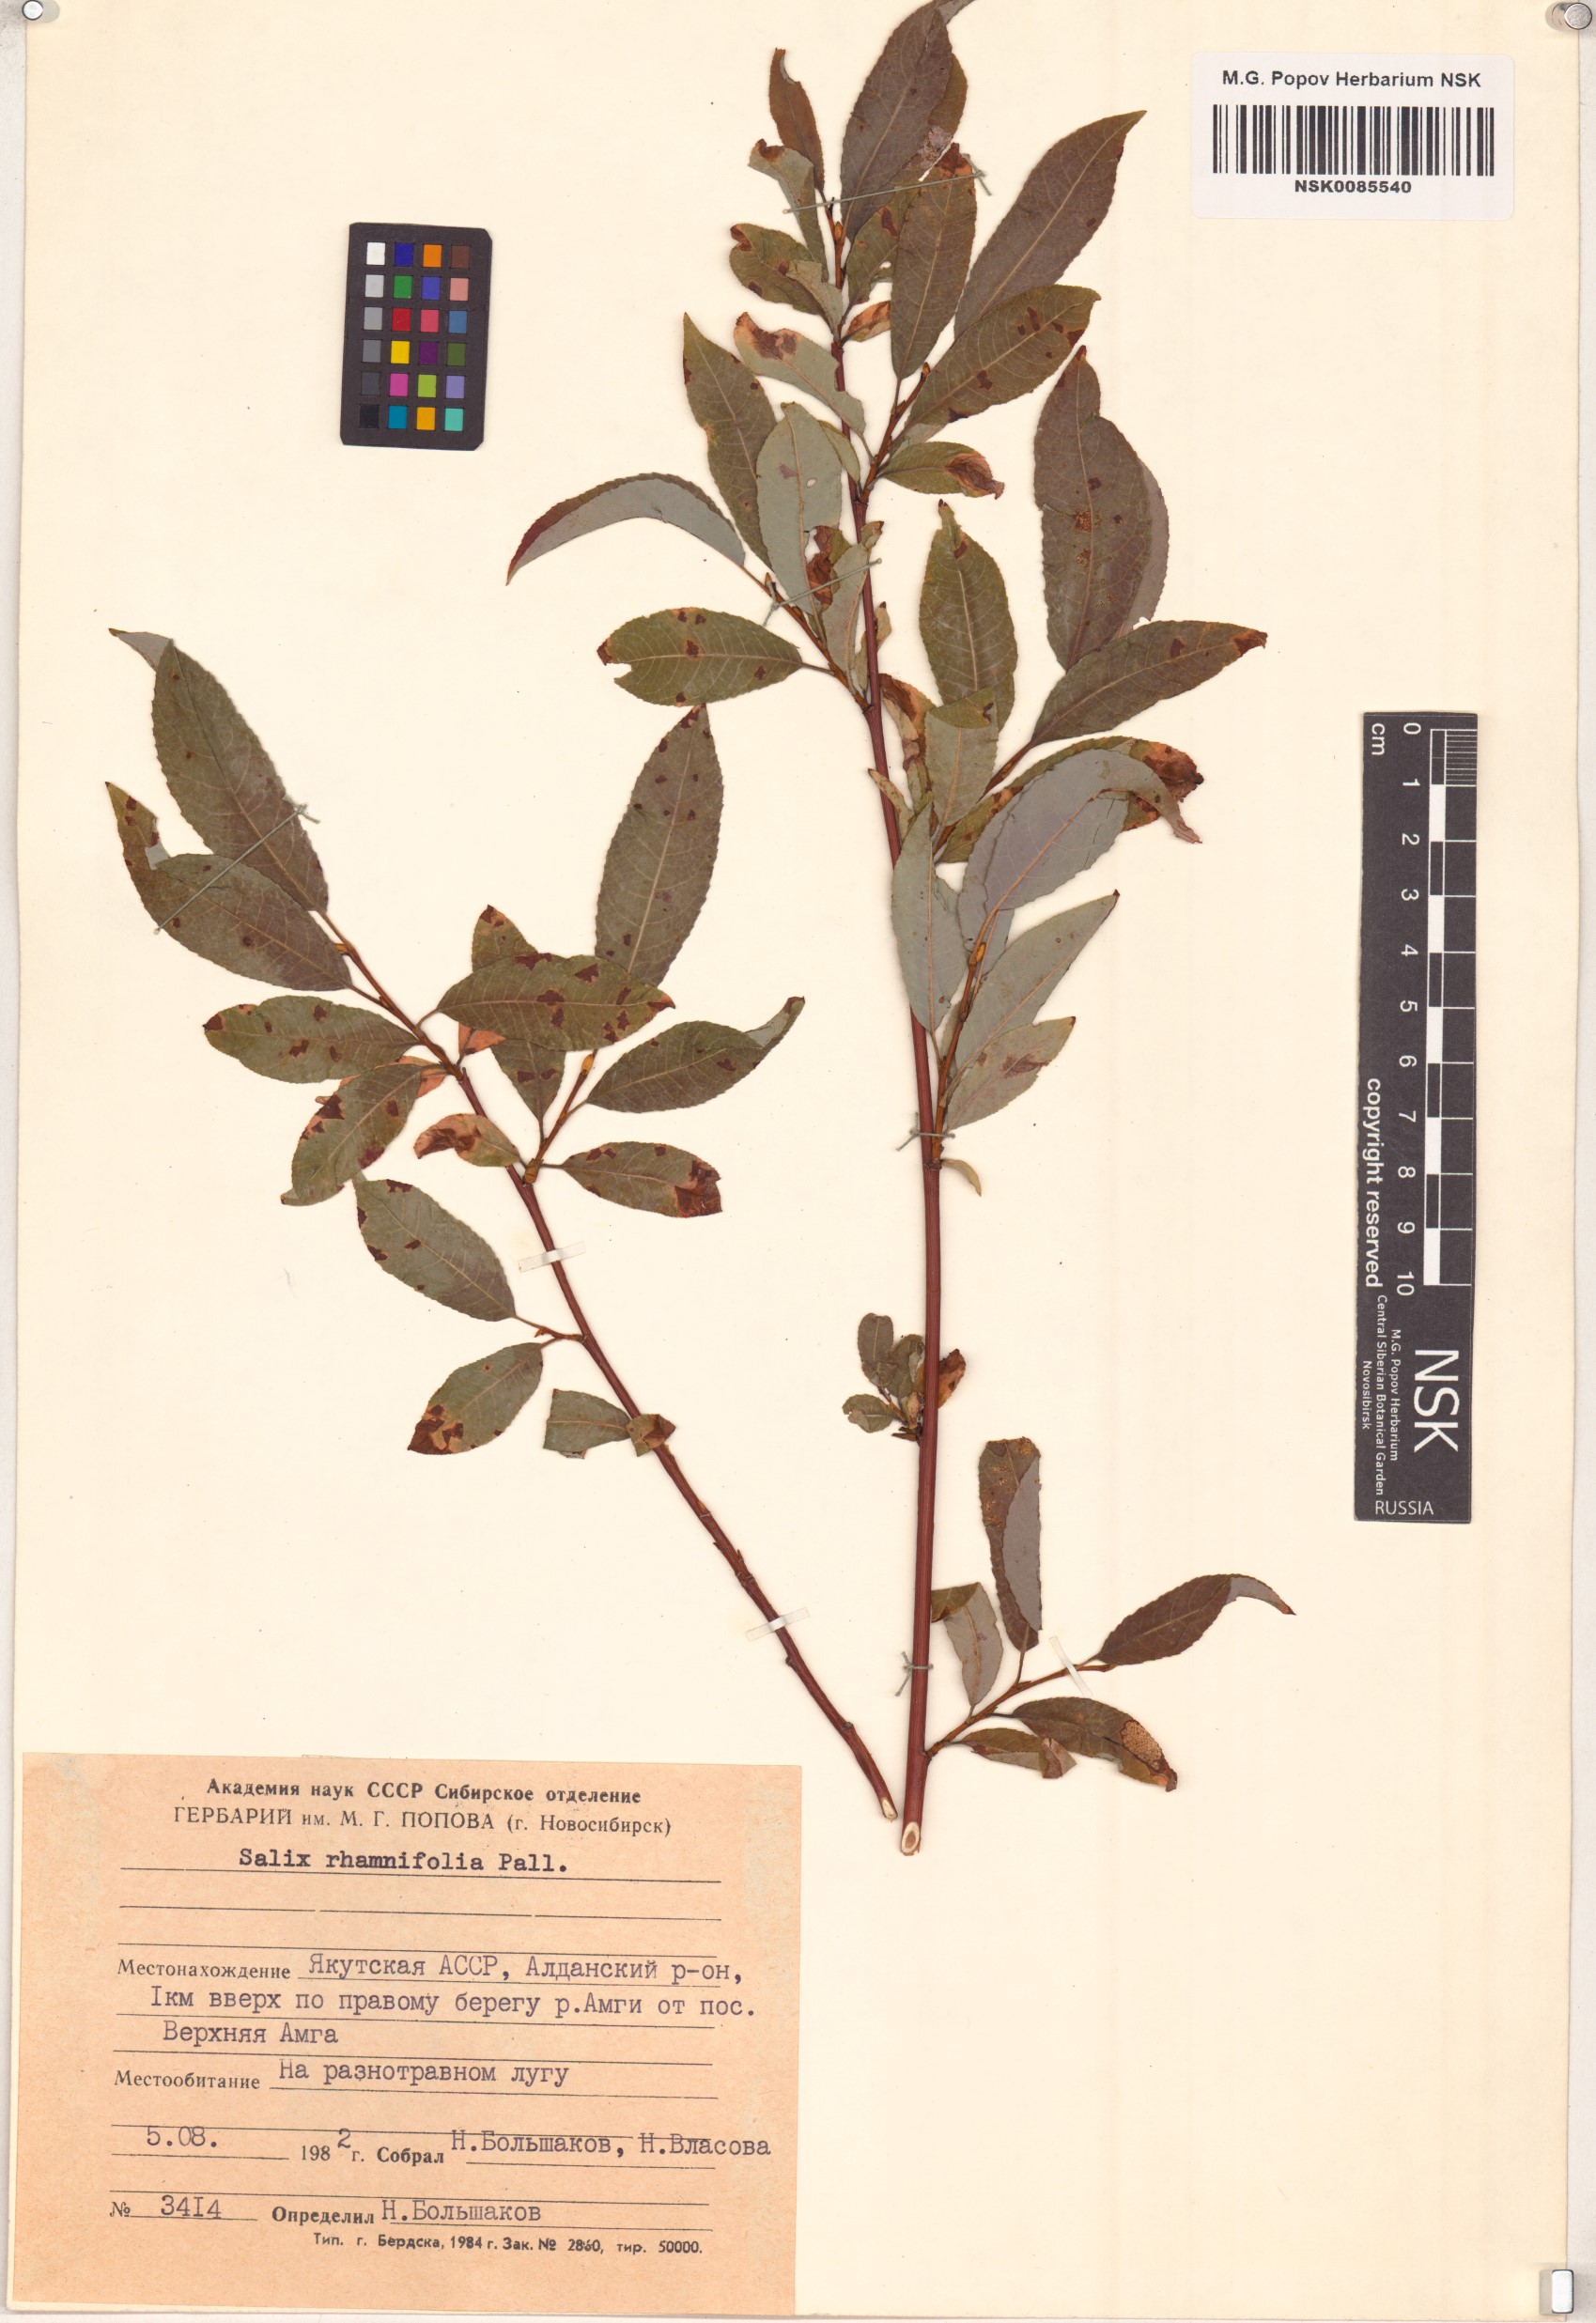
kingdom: Plantae
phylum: Tracheophyta
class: Magnoliopsida
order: Malpighiales
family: Salicaceae
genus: Salix
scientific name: Salix rhamnifolia
